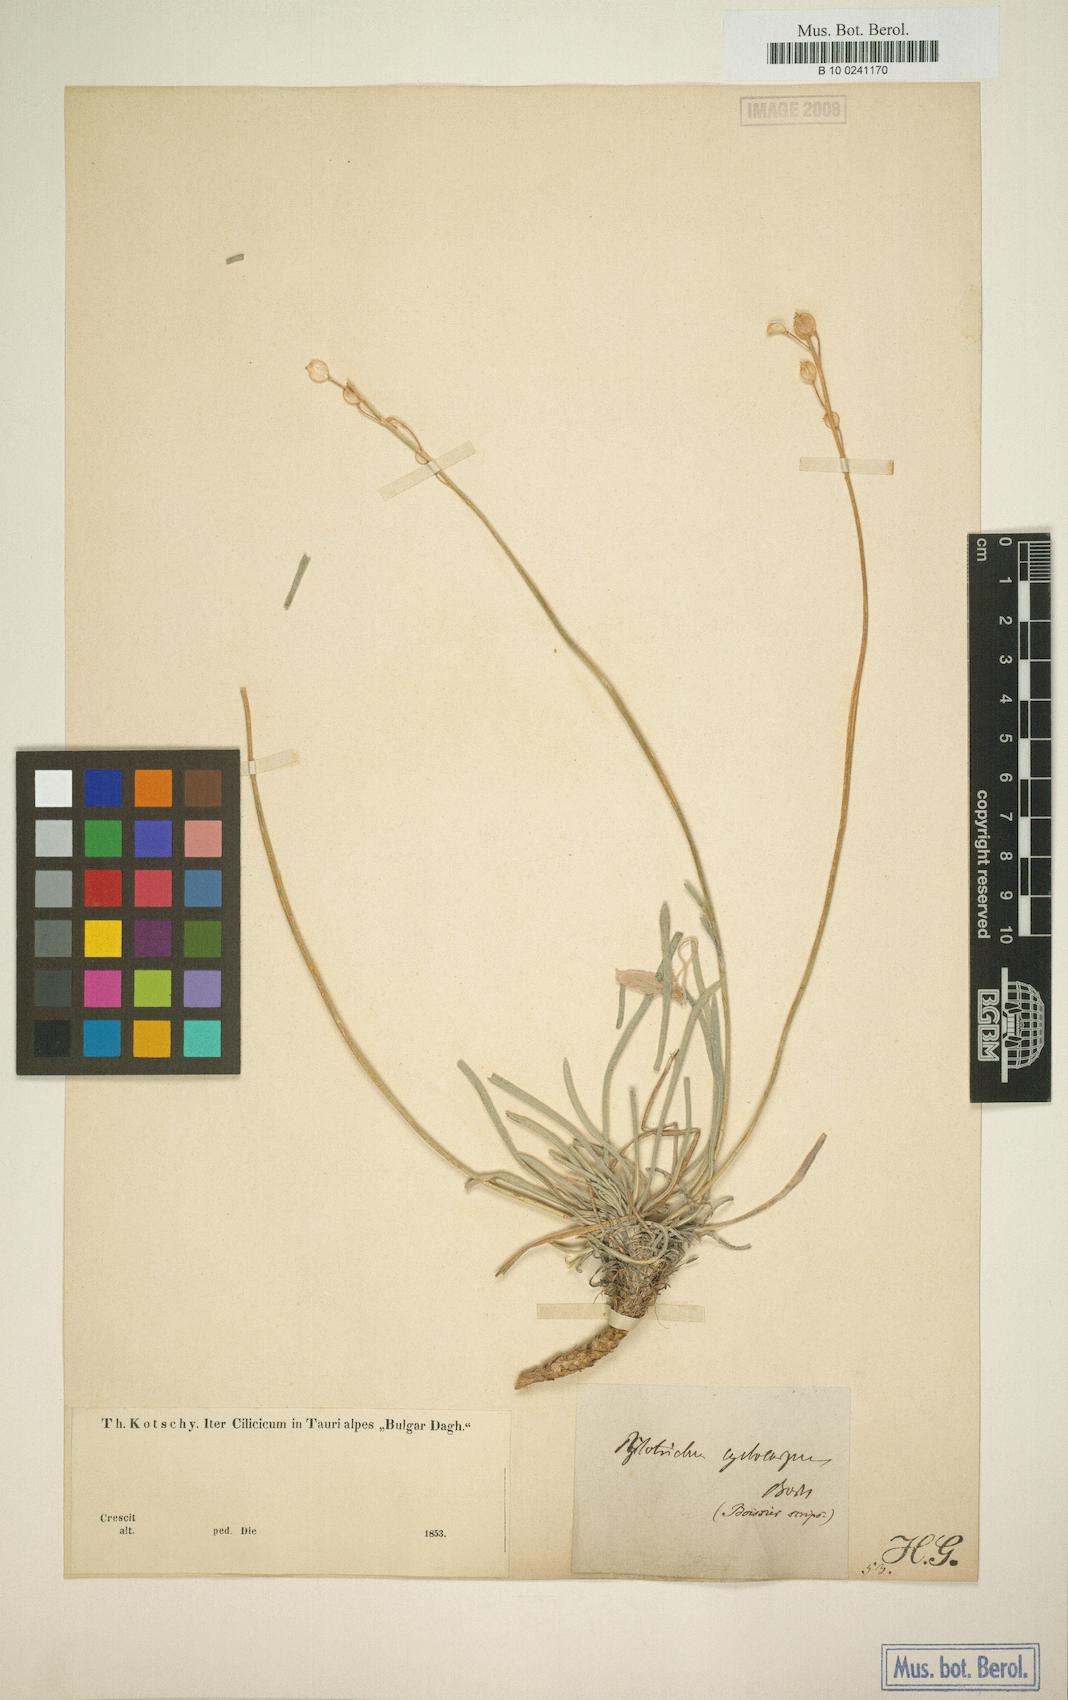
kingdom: Plantae
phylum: Tracheophyta
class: Magnoliopsida
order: Brassicales
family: Brassicaceae
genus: Phyllolepidium
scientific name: Phyllolepidium cyclocarpum
